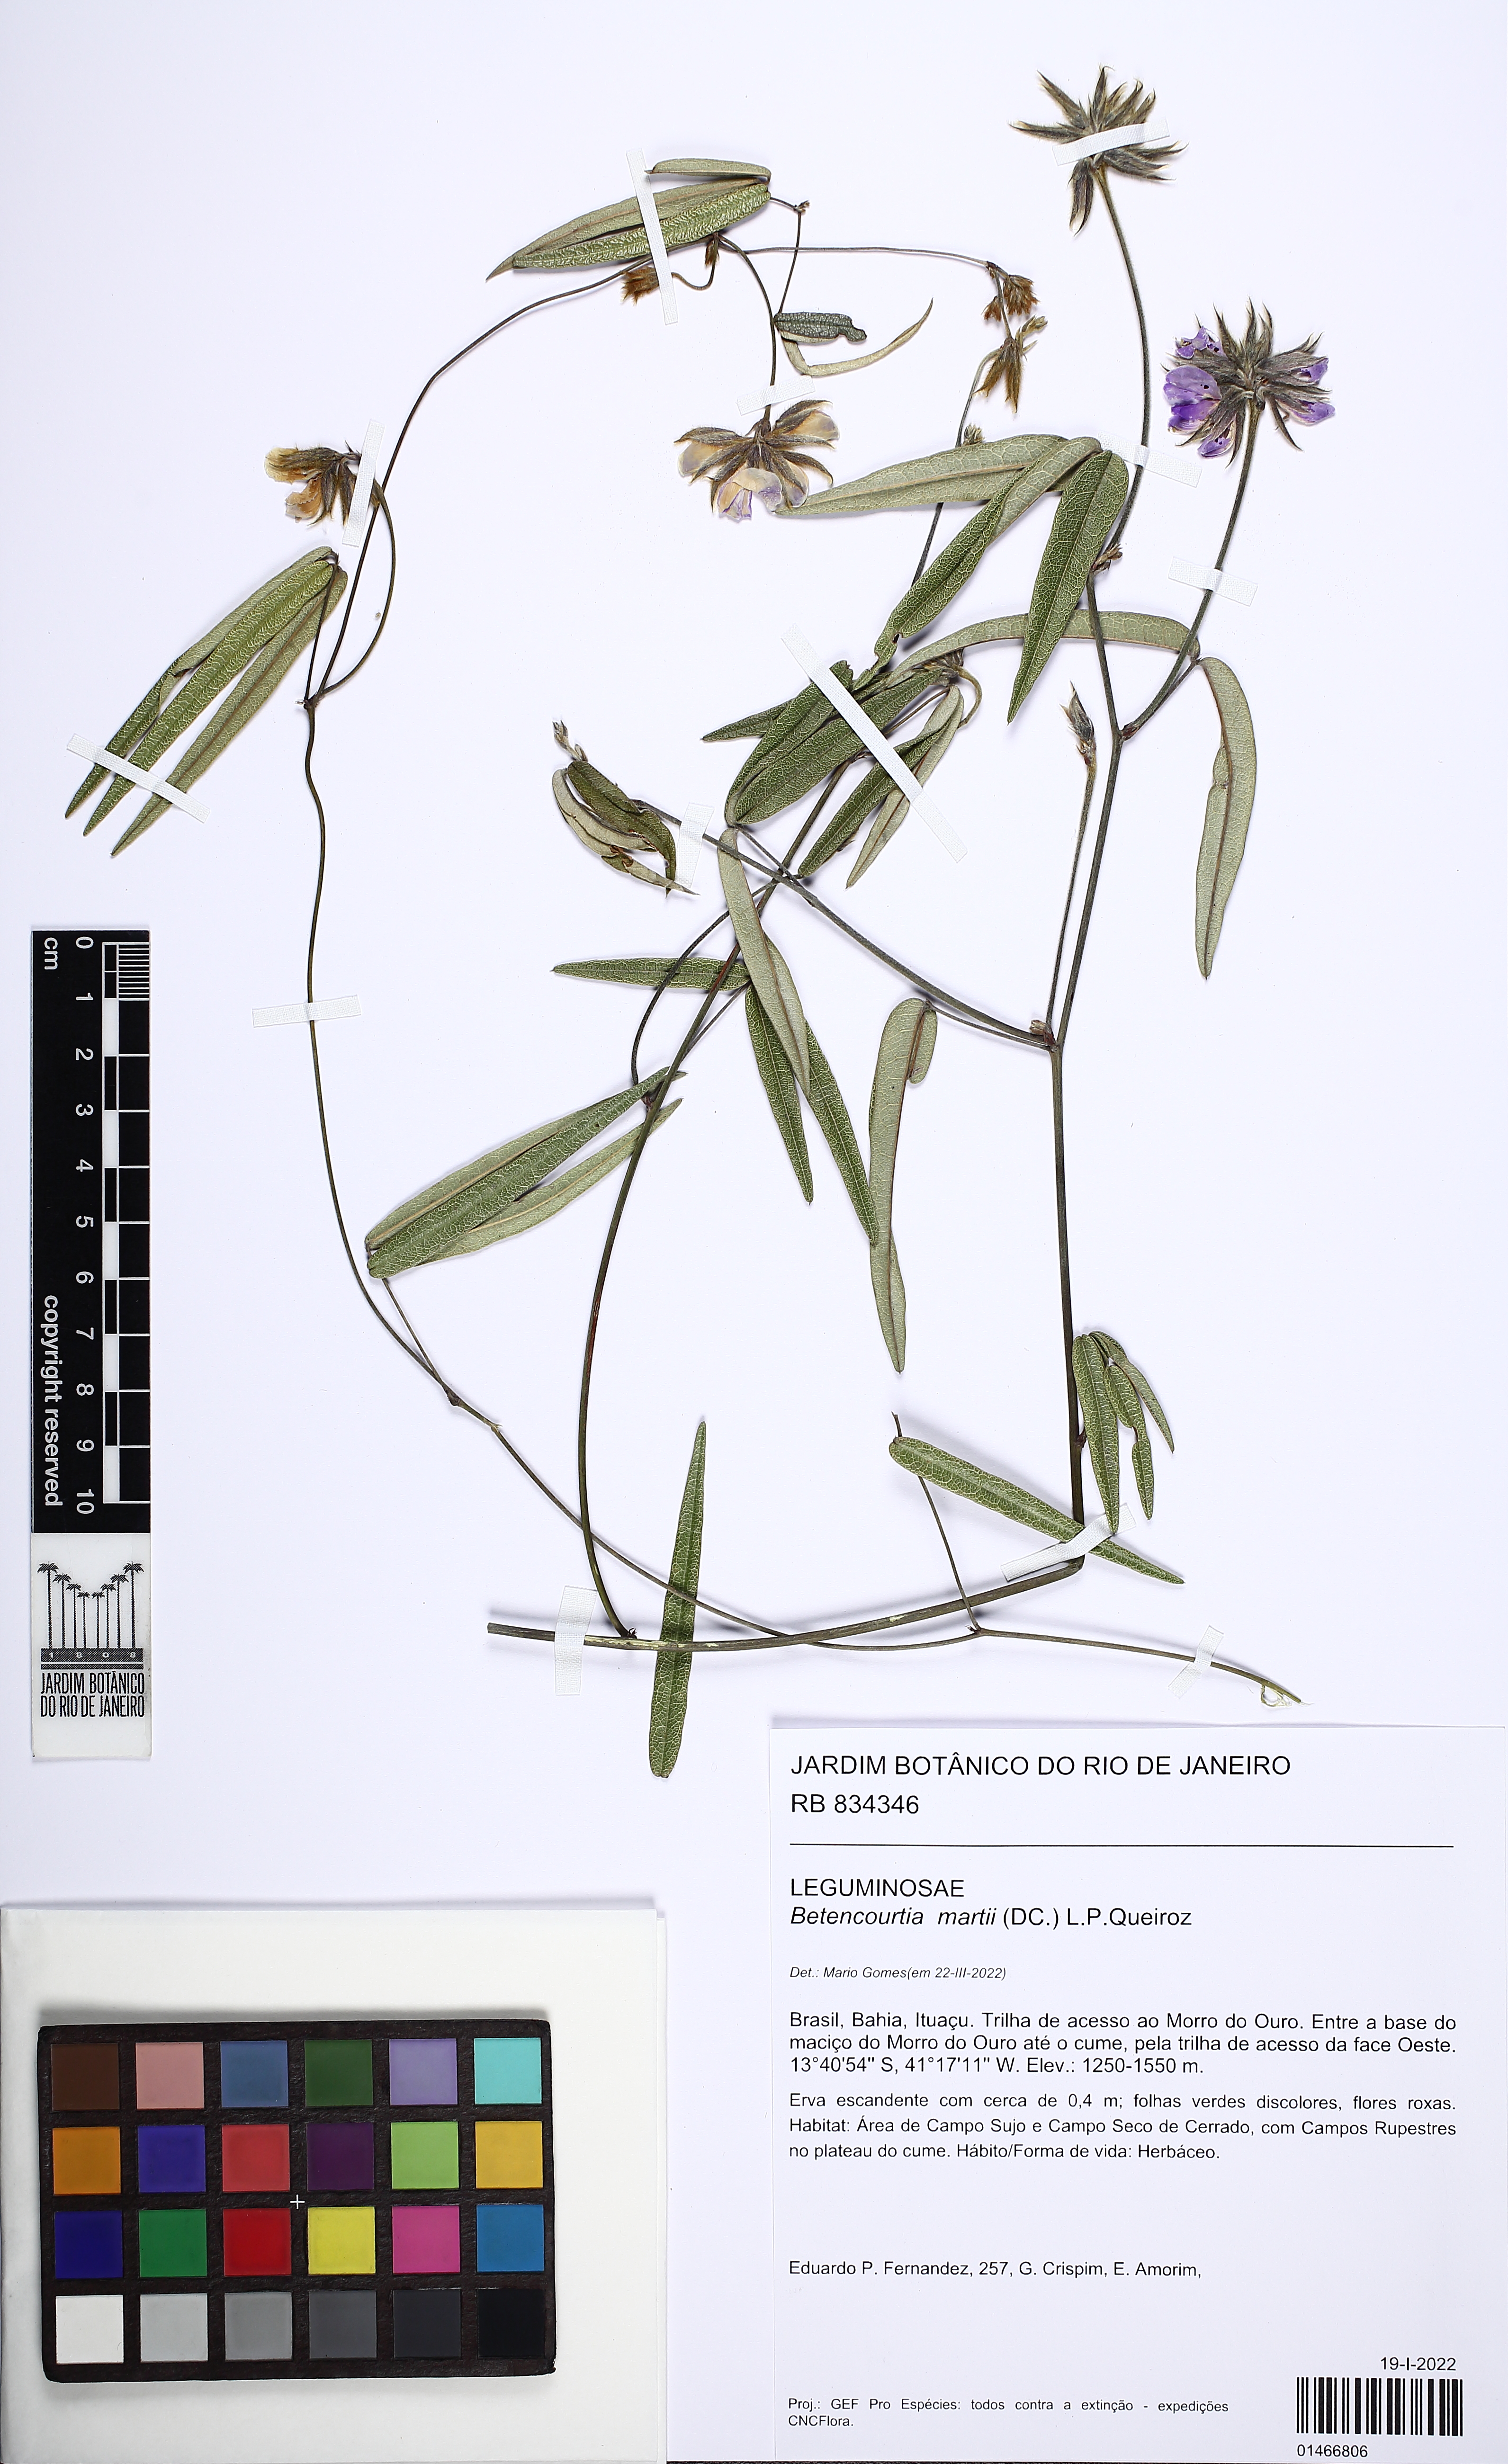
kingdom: Plantae
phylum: Tracheophyta
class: Magnoliopsida
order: Fabales
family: Fabaceae
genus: Betencourtia
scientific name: Betencourtia martii
